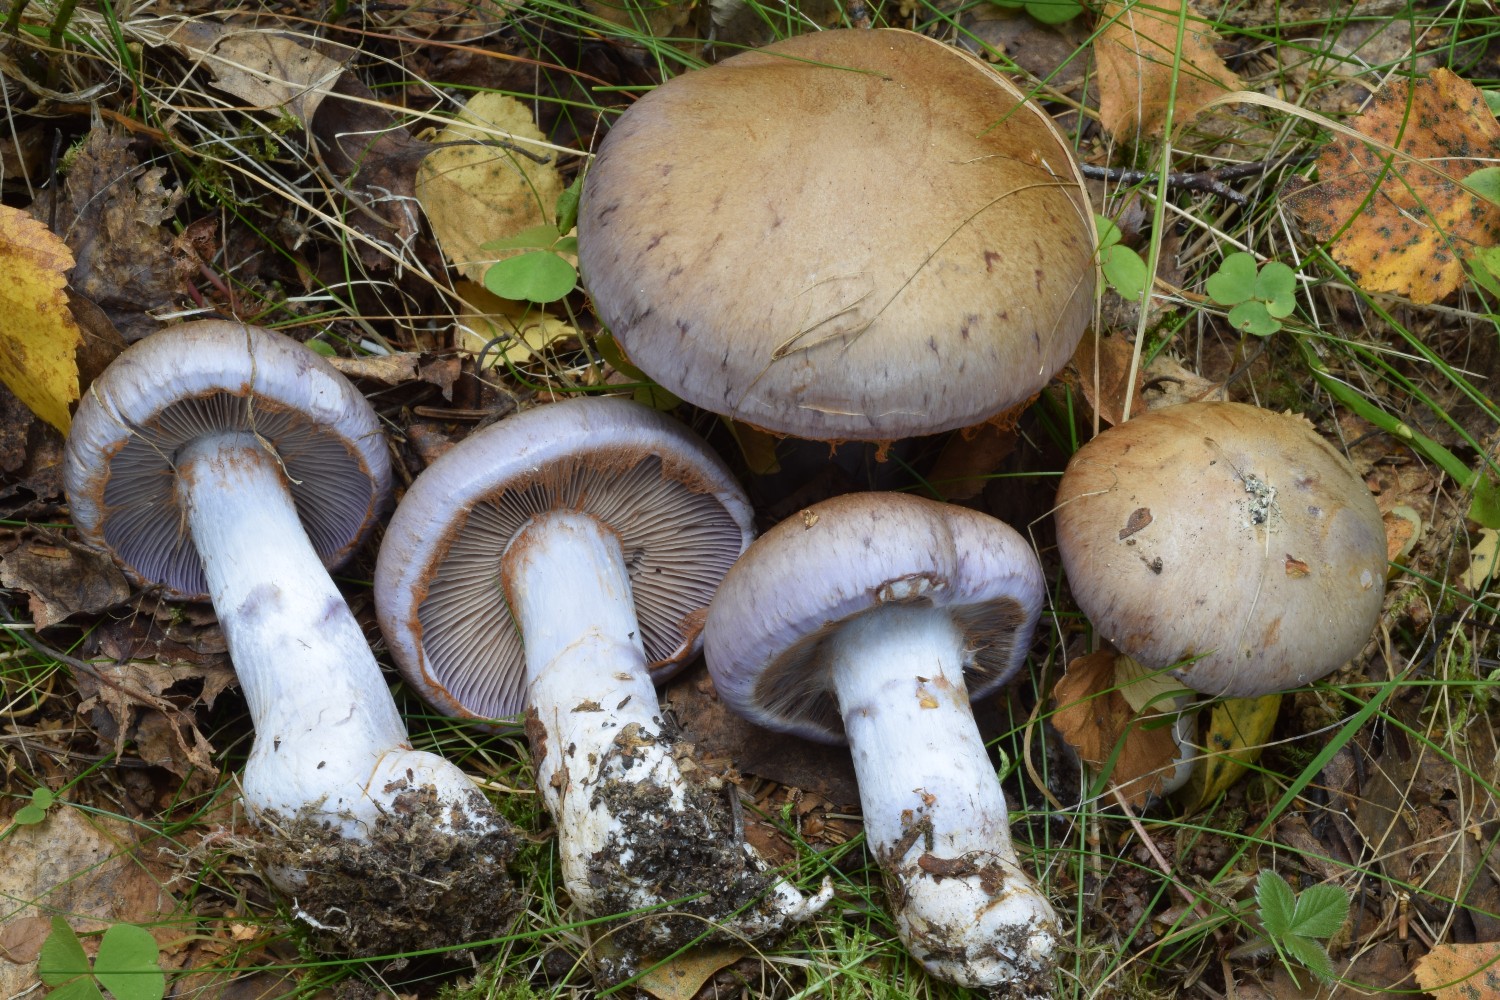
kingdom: Fungi
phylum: Basidiomycota
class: Agaricomycetes
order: Agaricales
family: Cortinariaceae
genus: Cortinarius
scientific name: Cortinarius largus
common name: violetrandet slørhat
